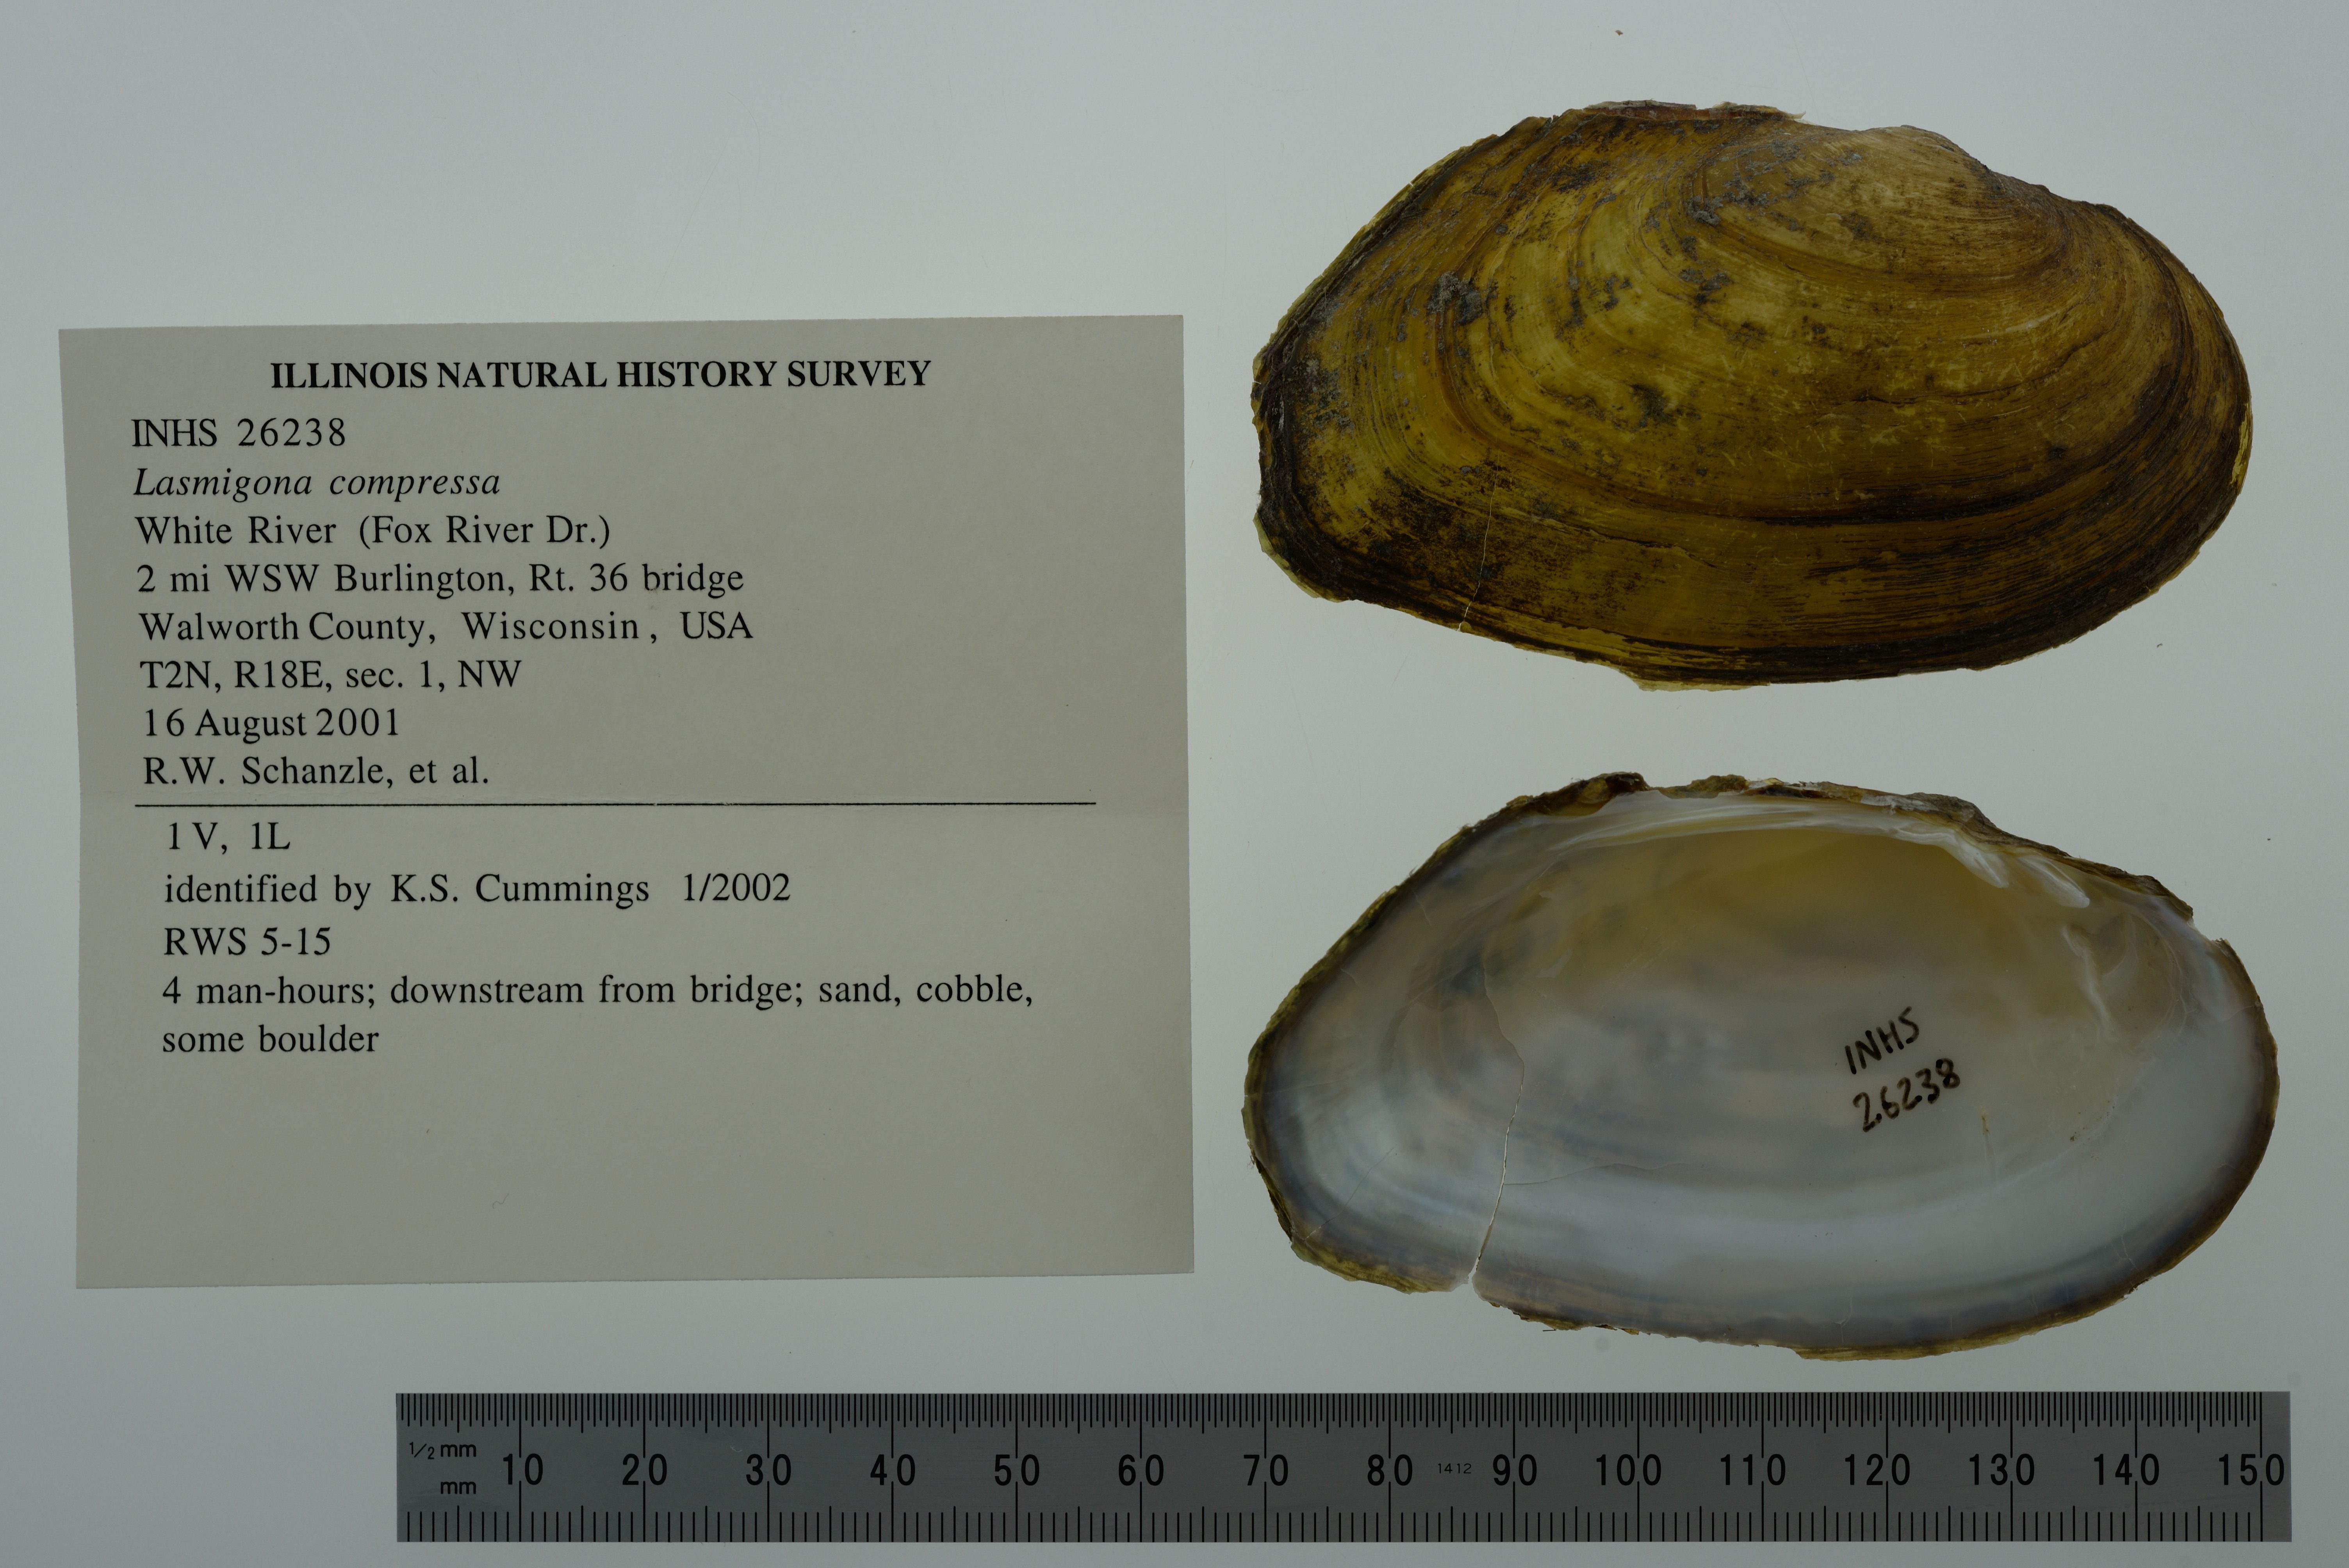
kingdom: Animalia
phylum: Mollusca
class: Bivalvia
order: Unionida
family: Unionidae
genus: Lasmigona
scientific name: Lasmigona compressa
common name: Creek heelsplitter
